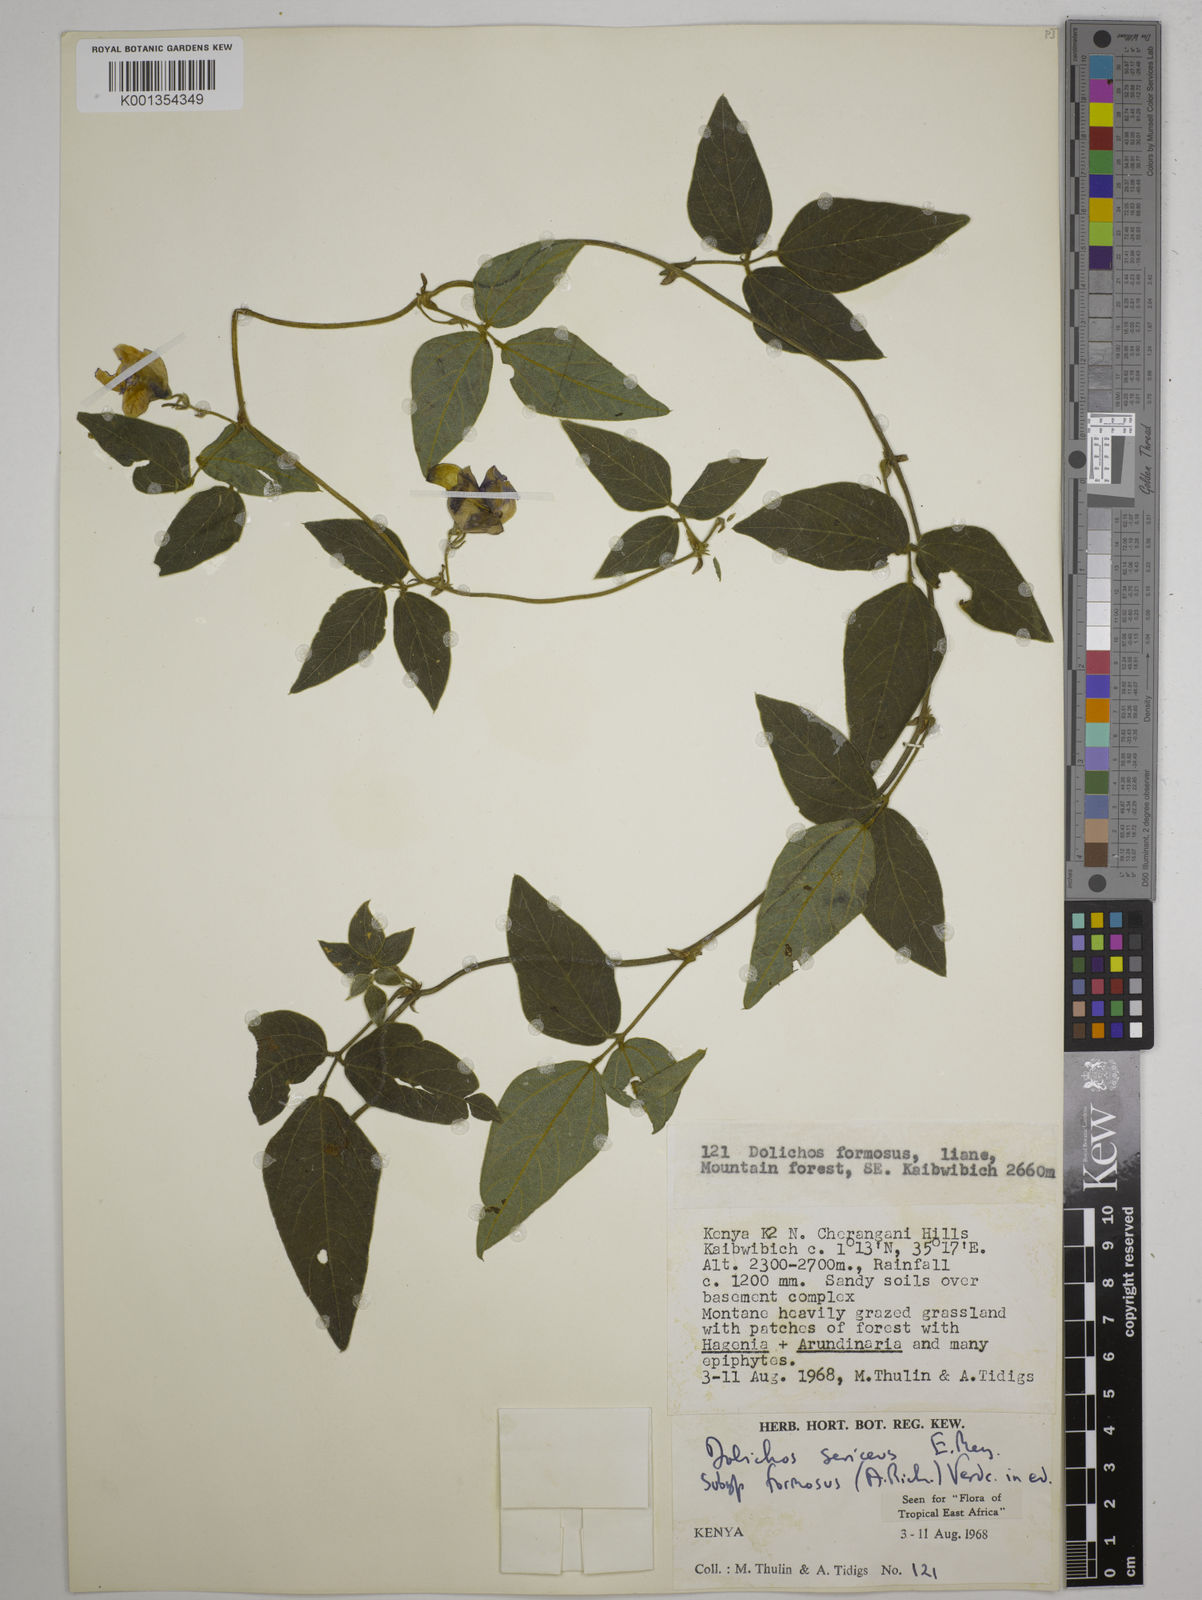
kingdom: Plantae
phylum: Tracheophyta
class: Magnoliopsida
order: Fabales
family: Fabaceae
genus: Dolichos
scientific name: Dolichos
